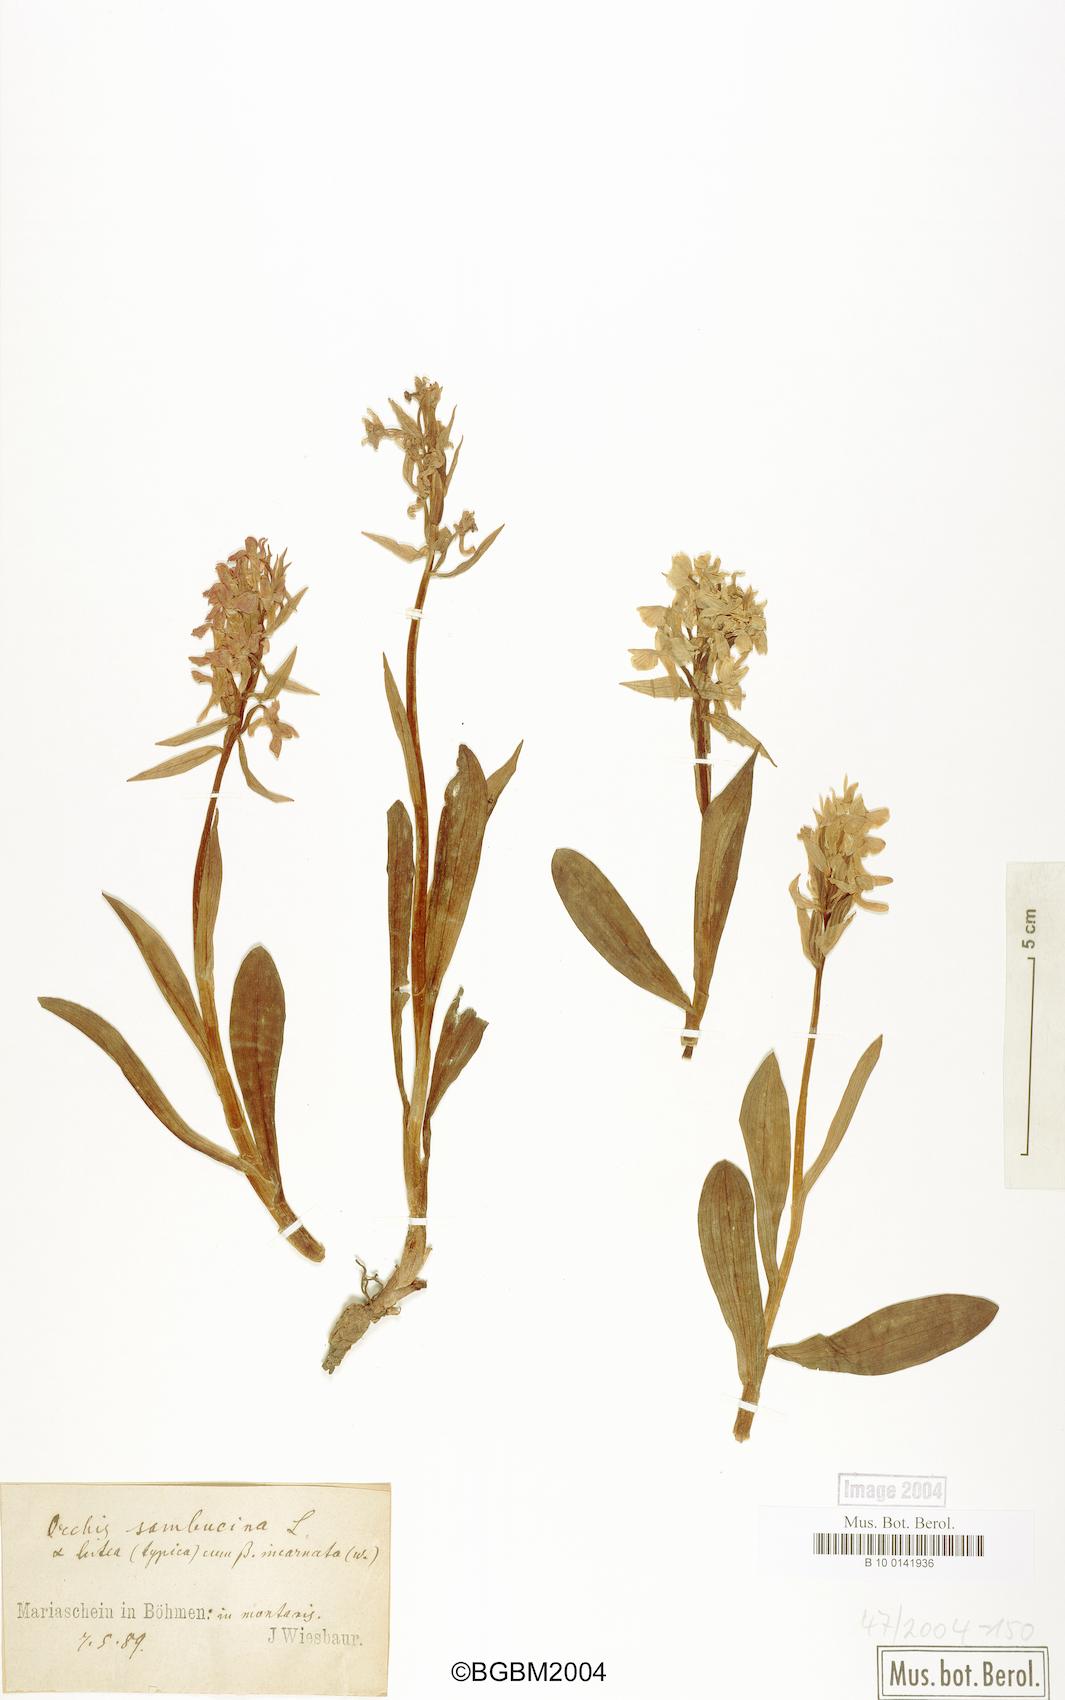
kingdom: Plantae
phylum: Tracheophyta
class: Liliopsida
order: Asparagales
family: Orchidaceae
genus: Dactylorhiza
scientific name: Dactylorhiza sambucina
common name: Elder-flowered orchid
